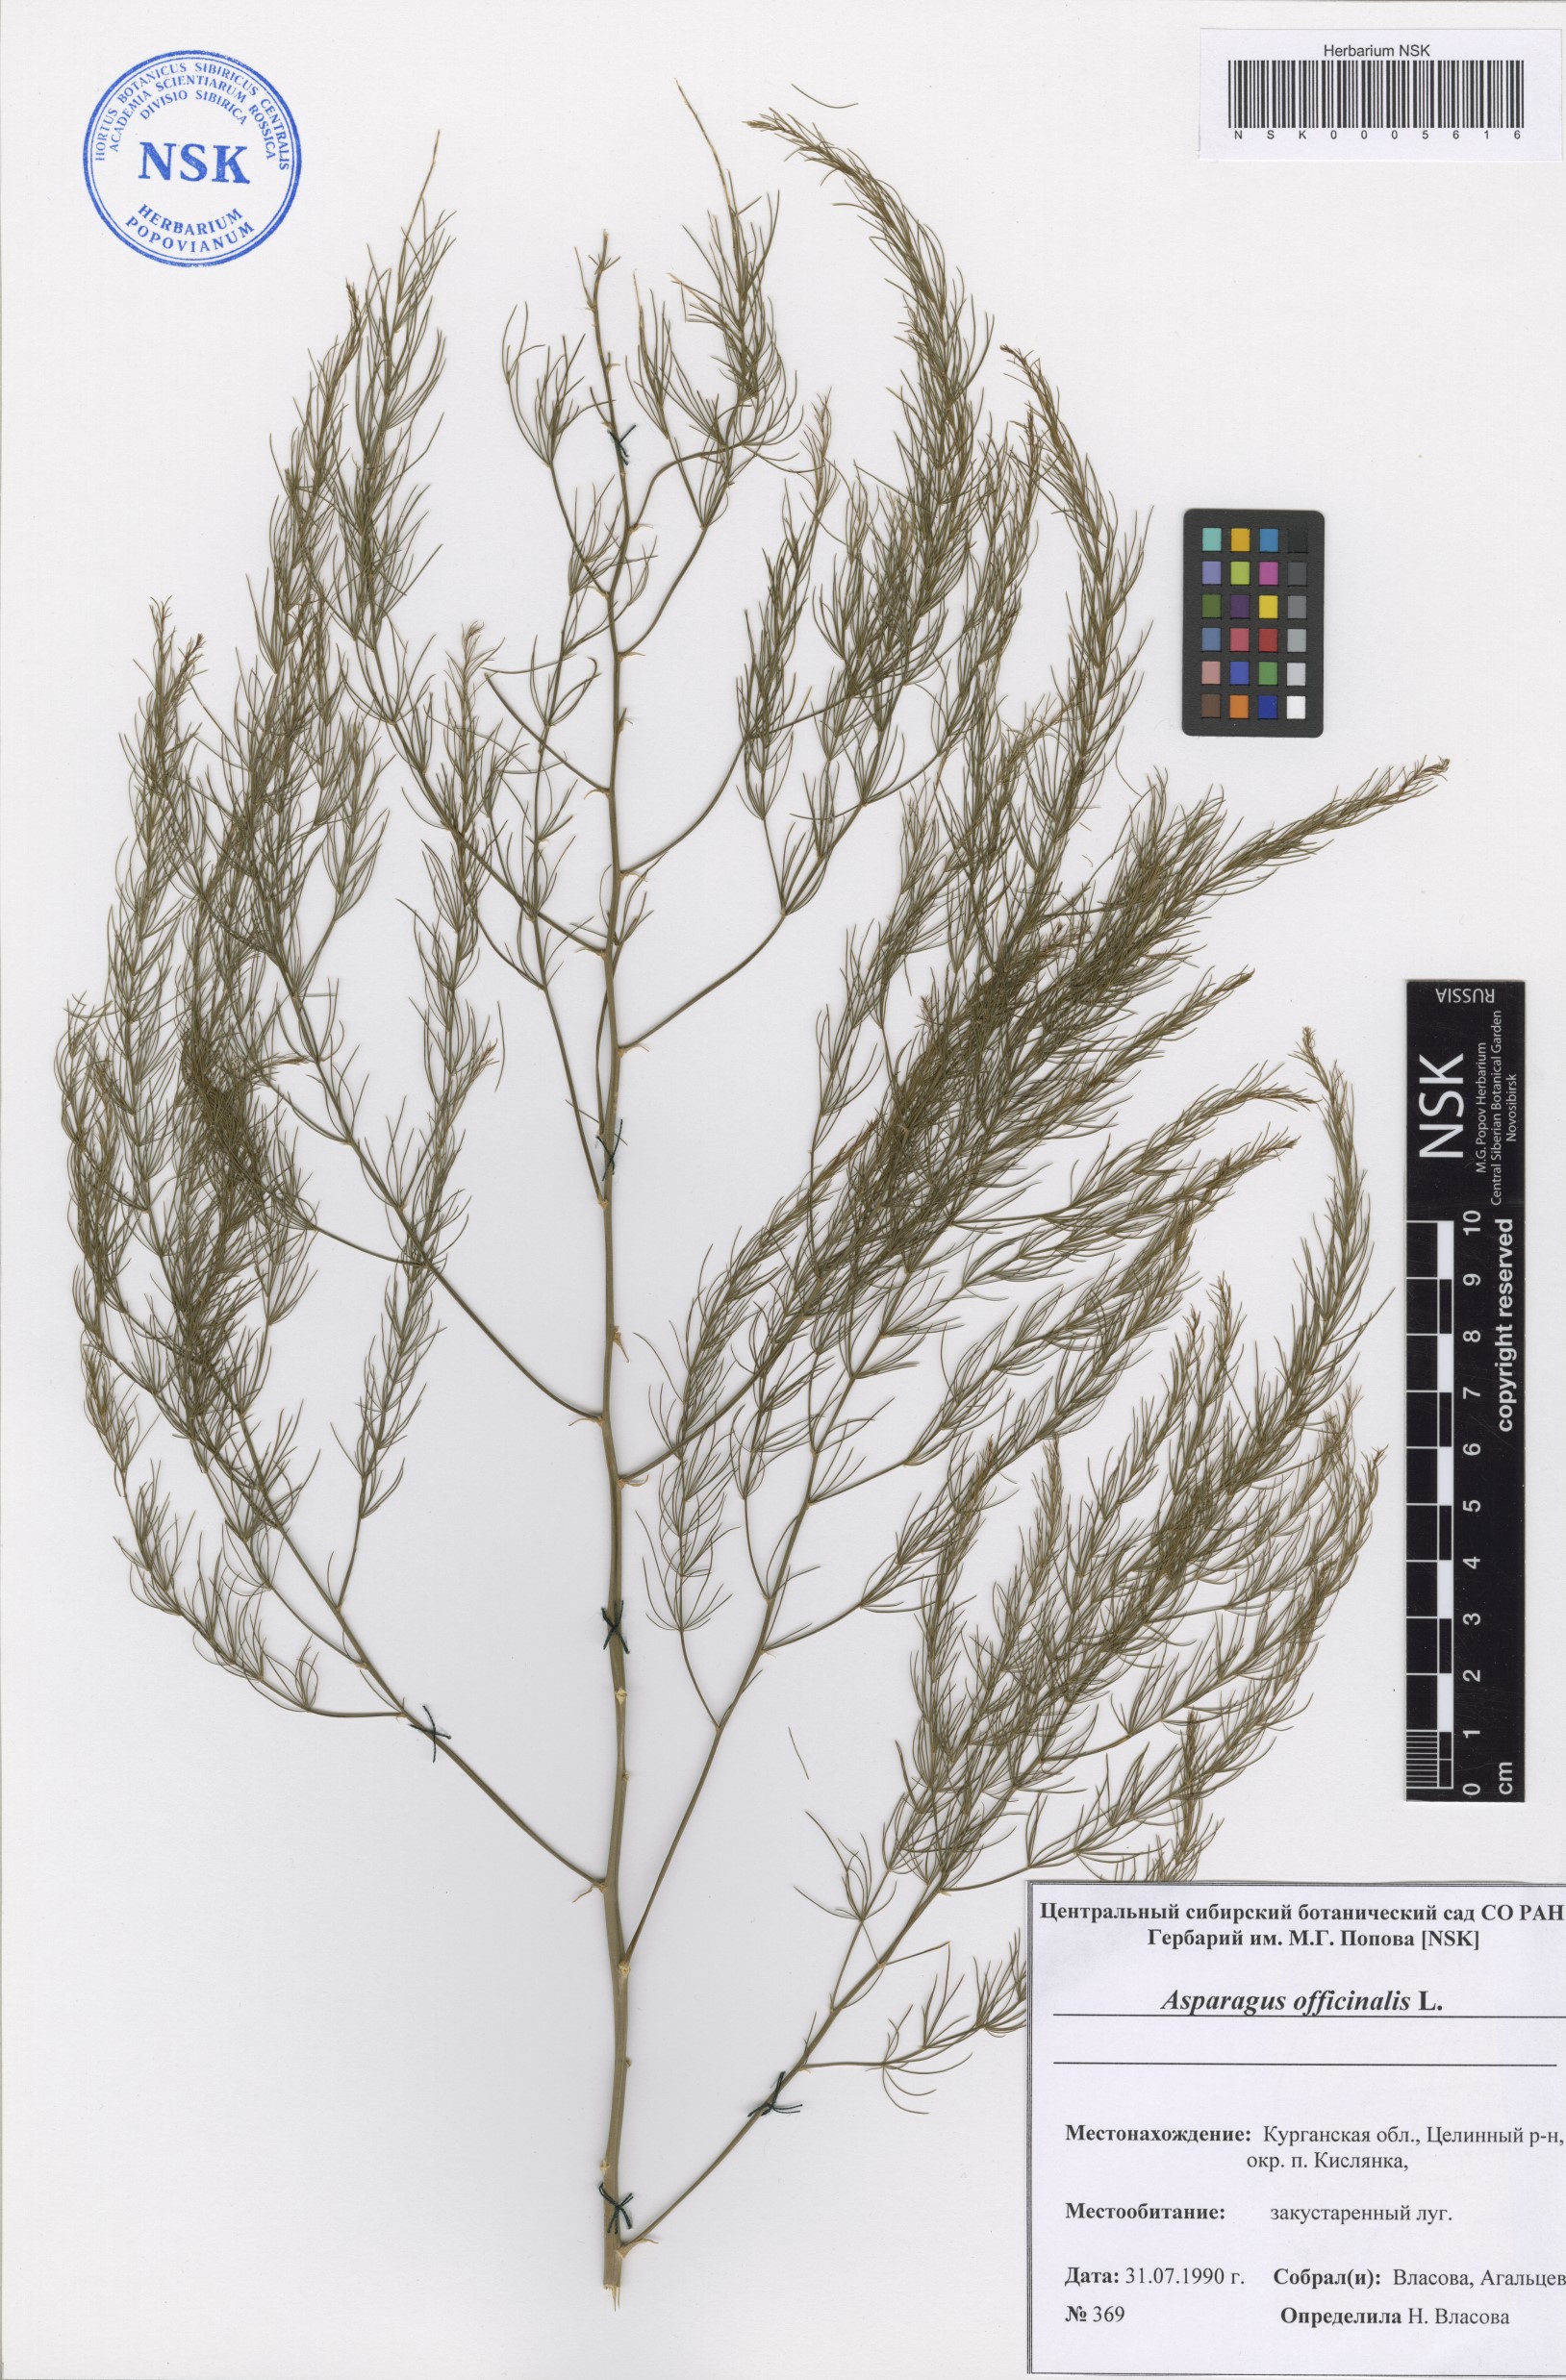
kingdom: Plantae
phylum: Tracheophyta
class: Liliopsida
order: Asparagales
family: Asparagaceae
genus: Asparagus
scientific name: Asparagus officinalis
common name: Garden asparagus
